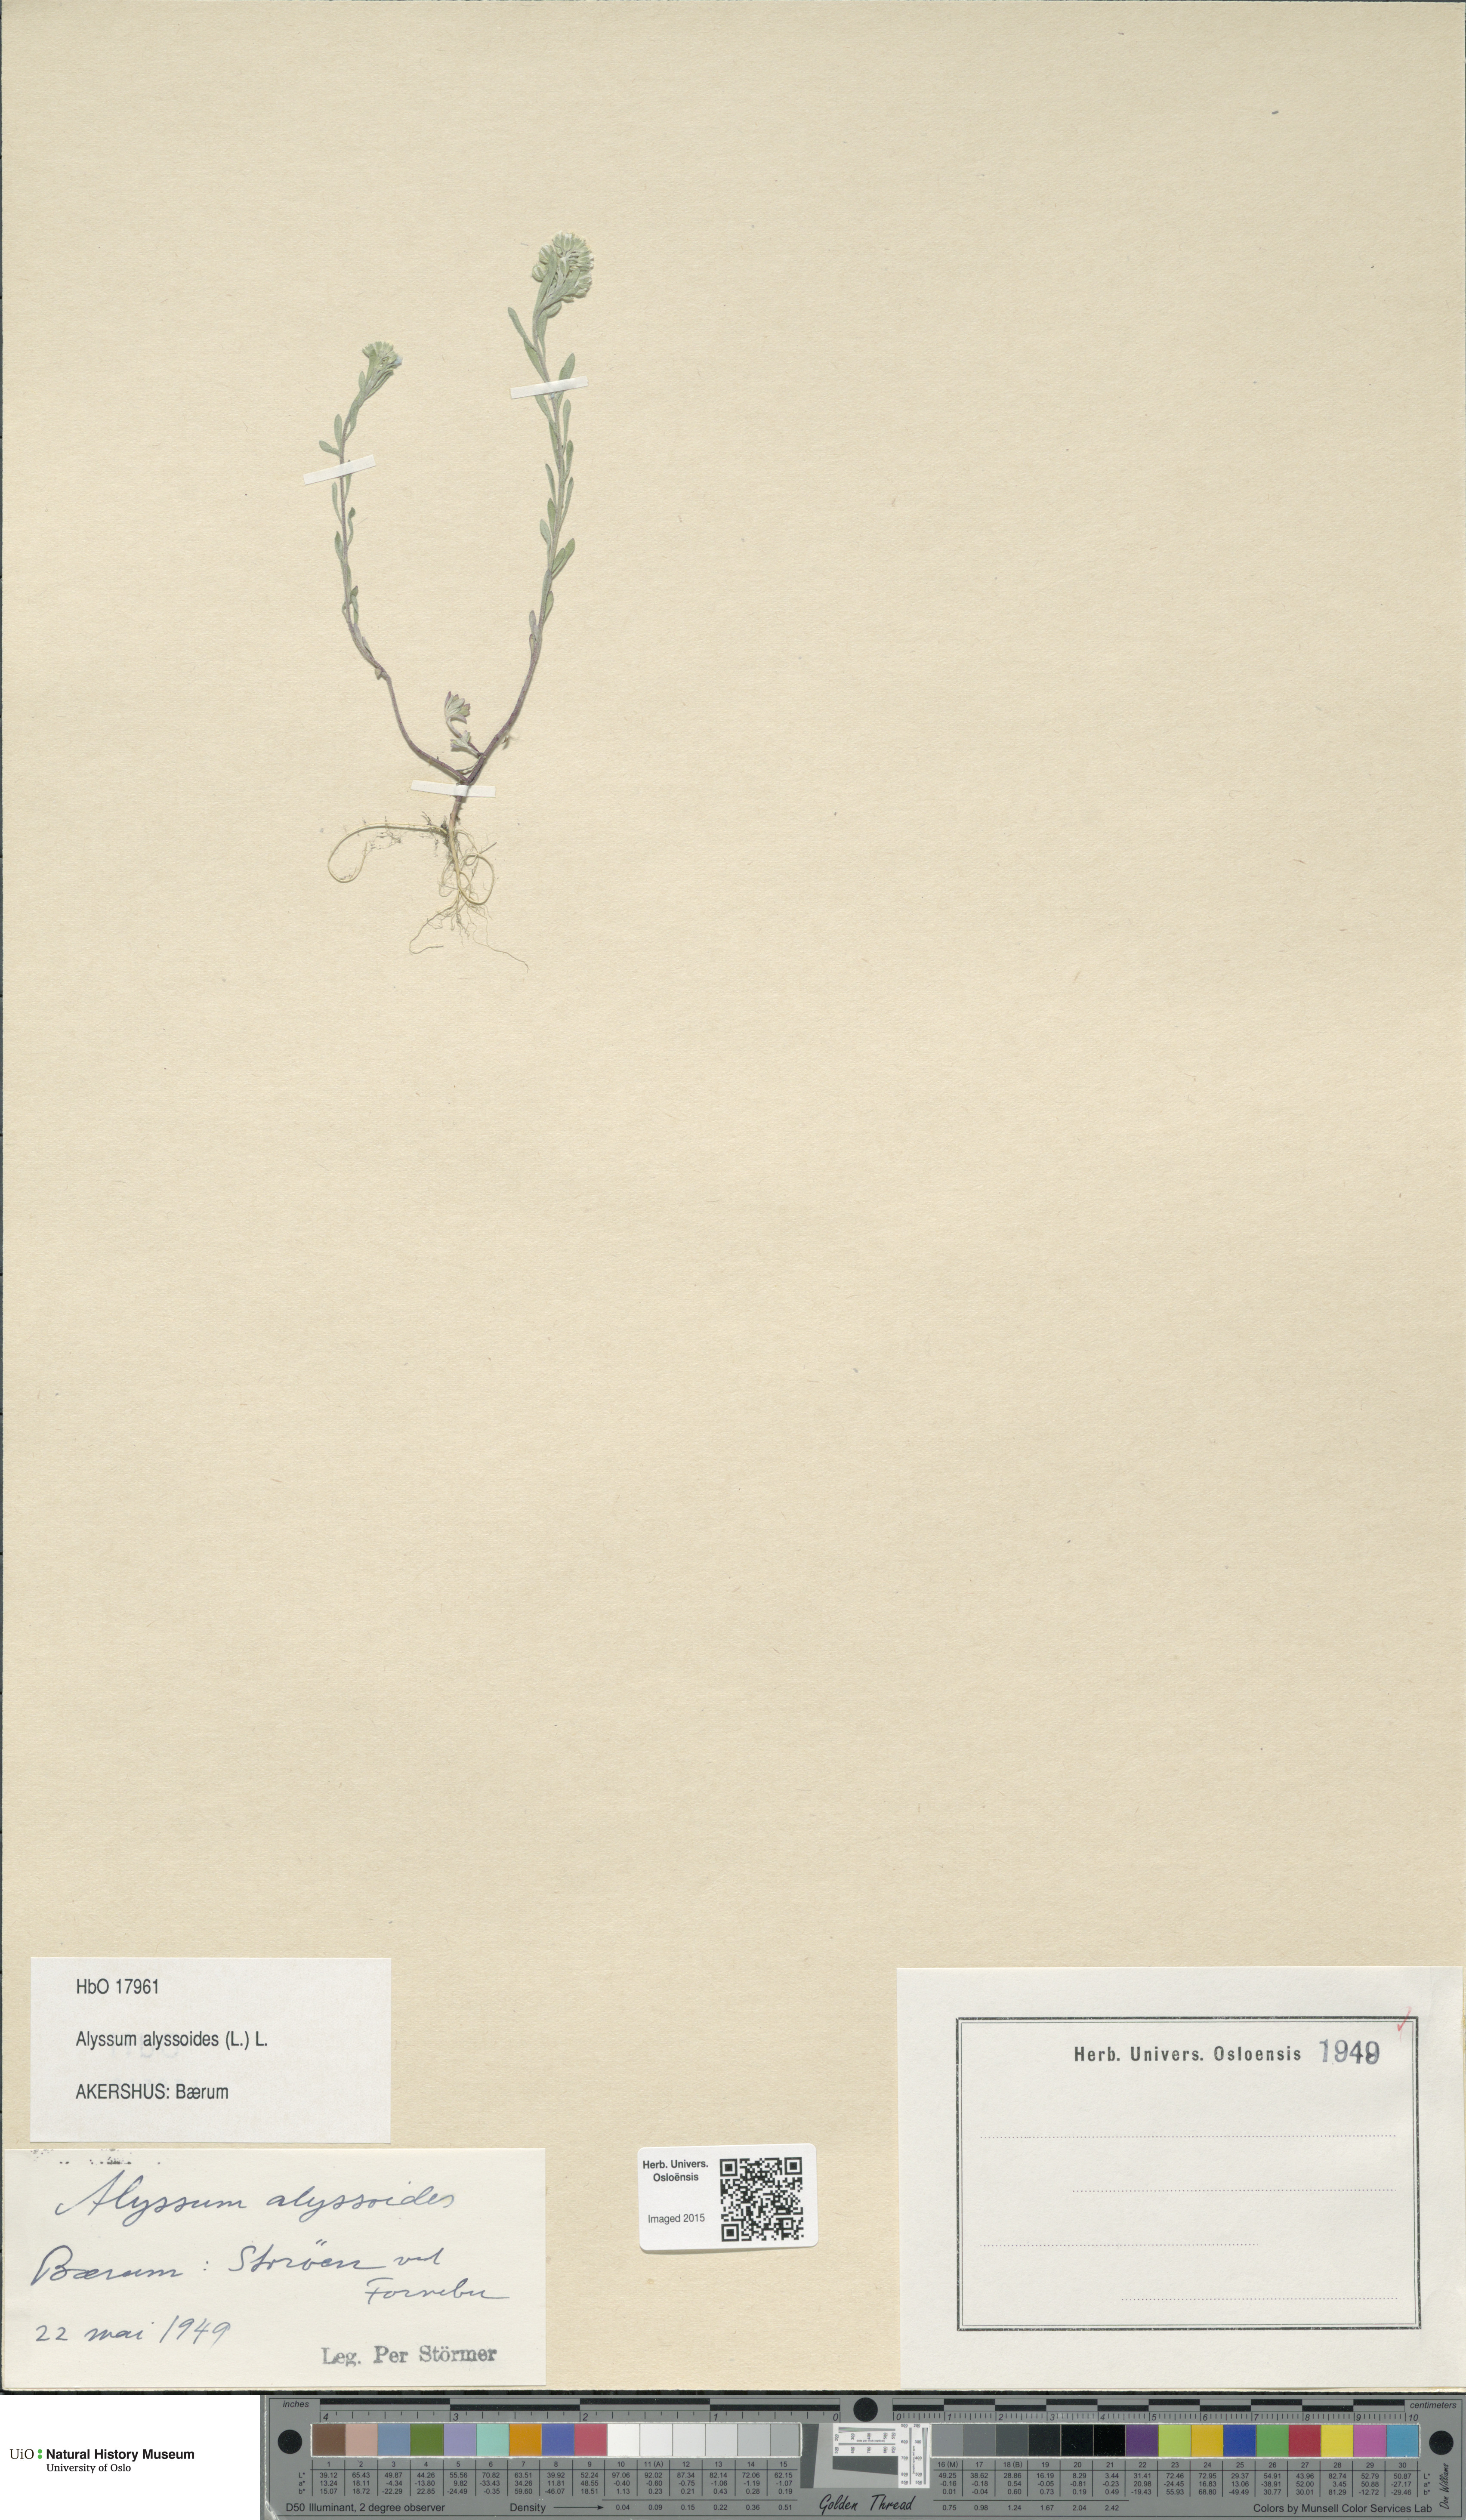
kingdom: Plantae
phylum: Tracheophyta
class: Magnoliopsida
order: Brassicales
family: Brassicaceae
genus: Alyssum
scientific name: Alyssum alyssoides
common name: Small alison
